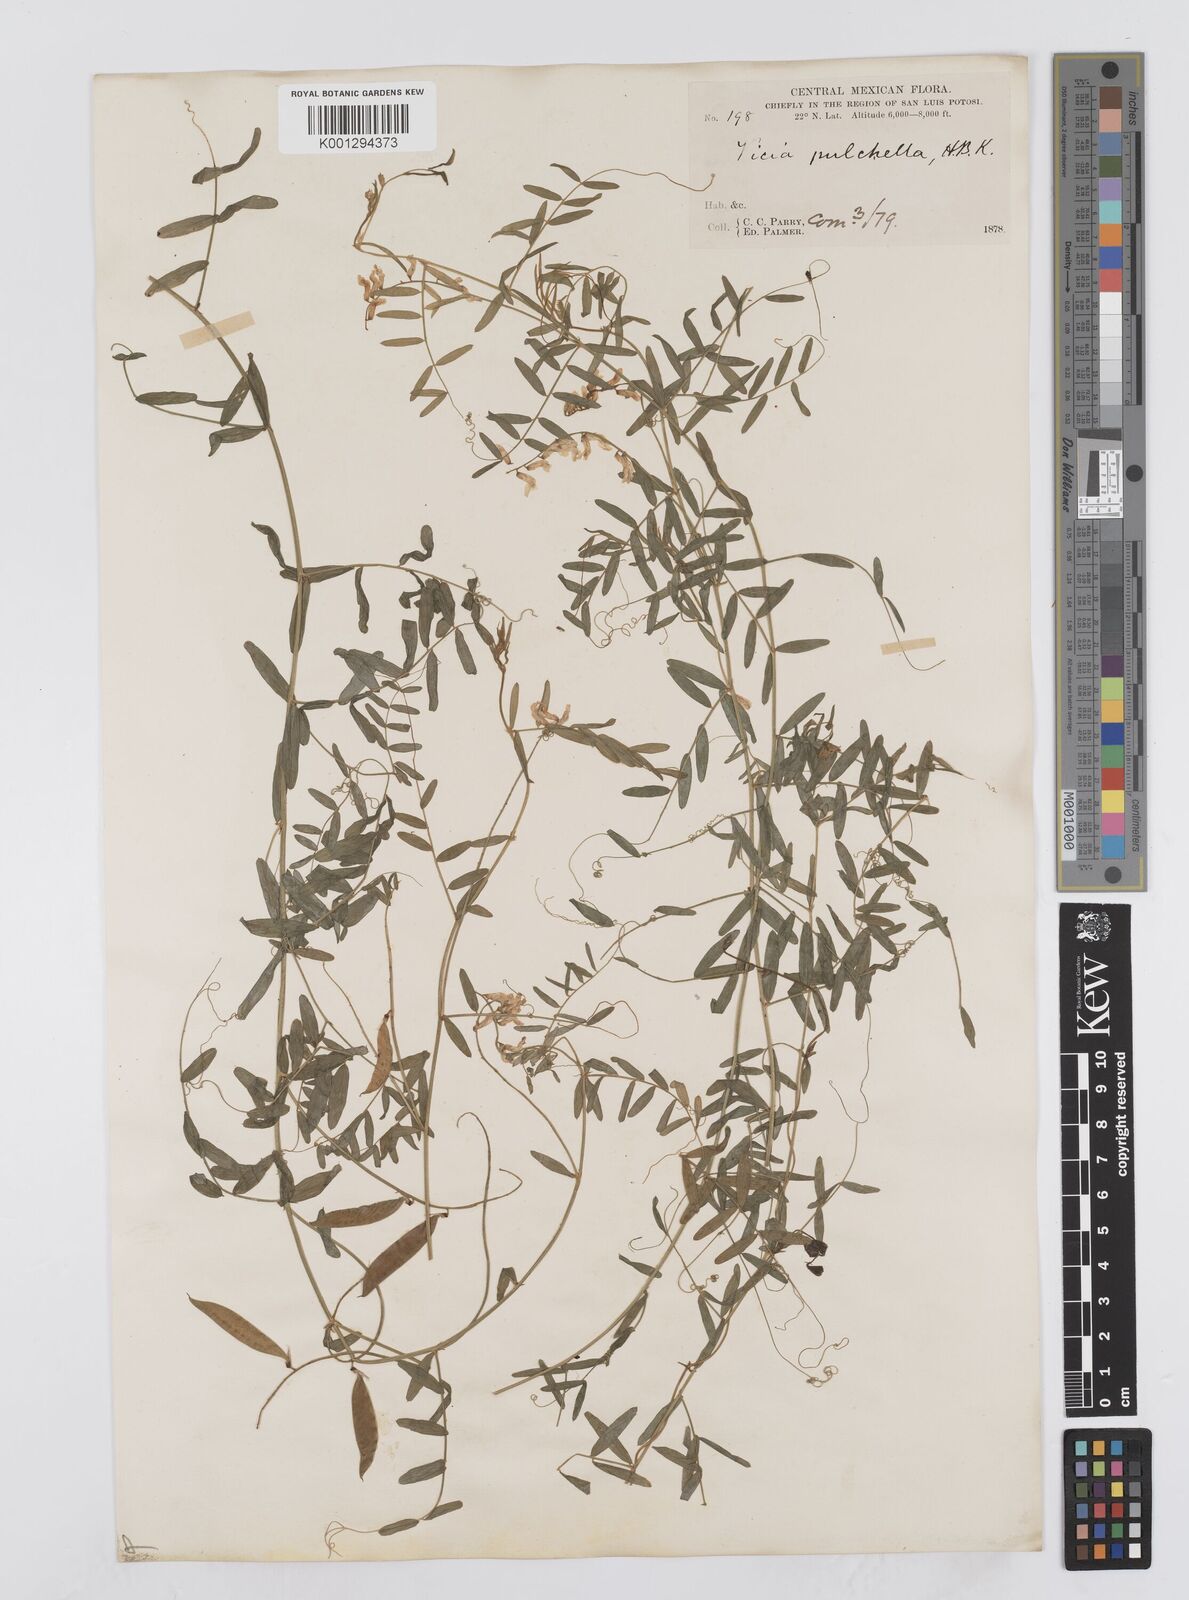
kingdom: Plantae
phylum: Tracheophyta
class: Magnoliopsida
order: Fabales
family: Fabaceae
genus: Vicia
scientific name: Vicia pulchella
